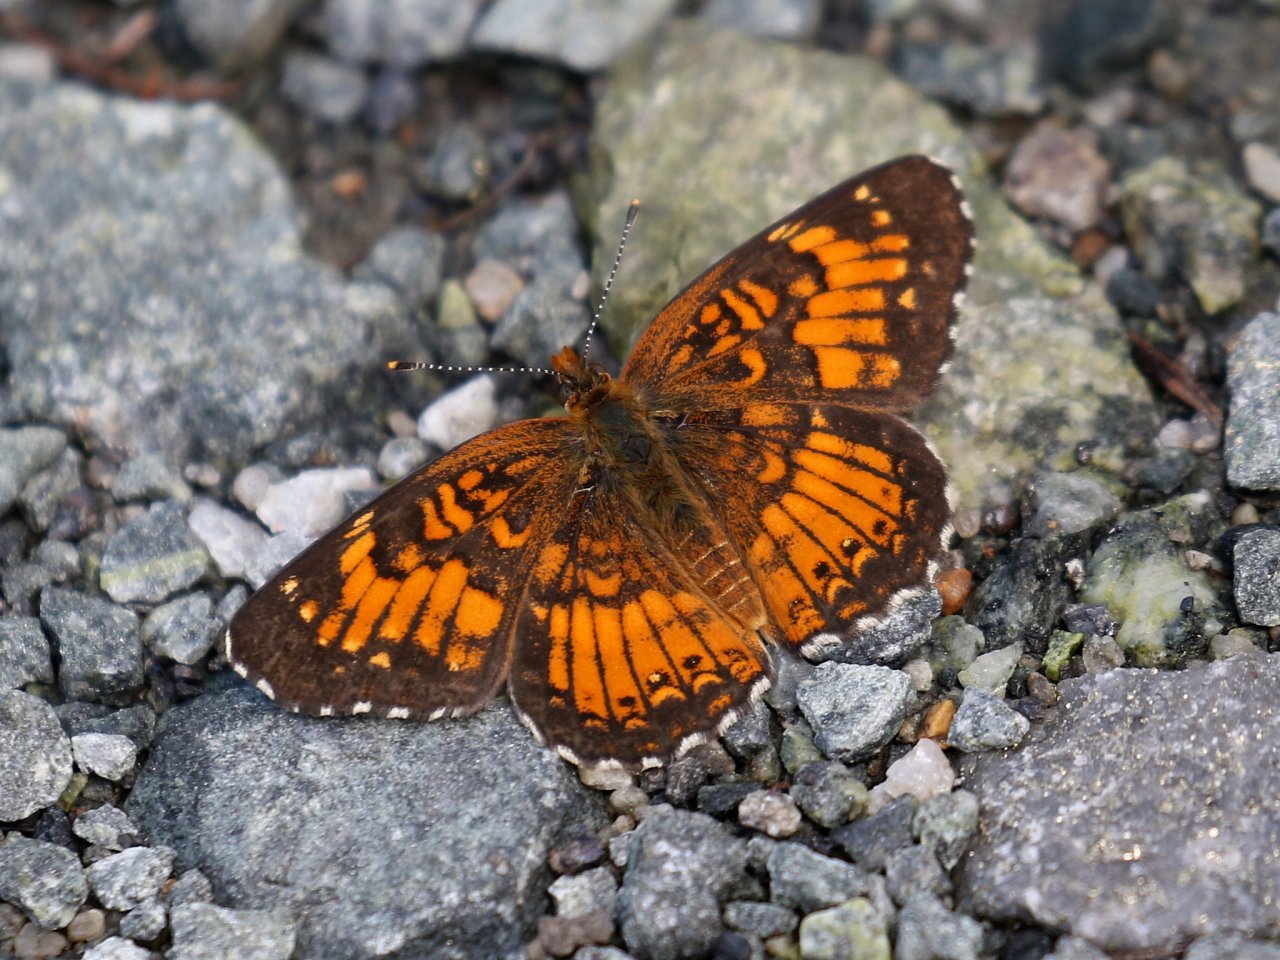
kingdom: Animalia
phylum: Arthropoda
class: Insecta
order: Lepidoptera
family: Nymphalidae
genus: Chlosyne
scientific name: Chlosyne harrisii
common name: Harris's Checkerspot
